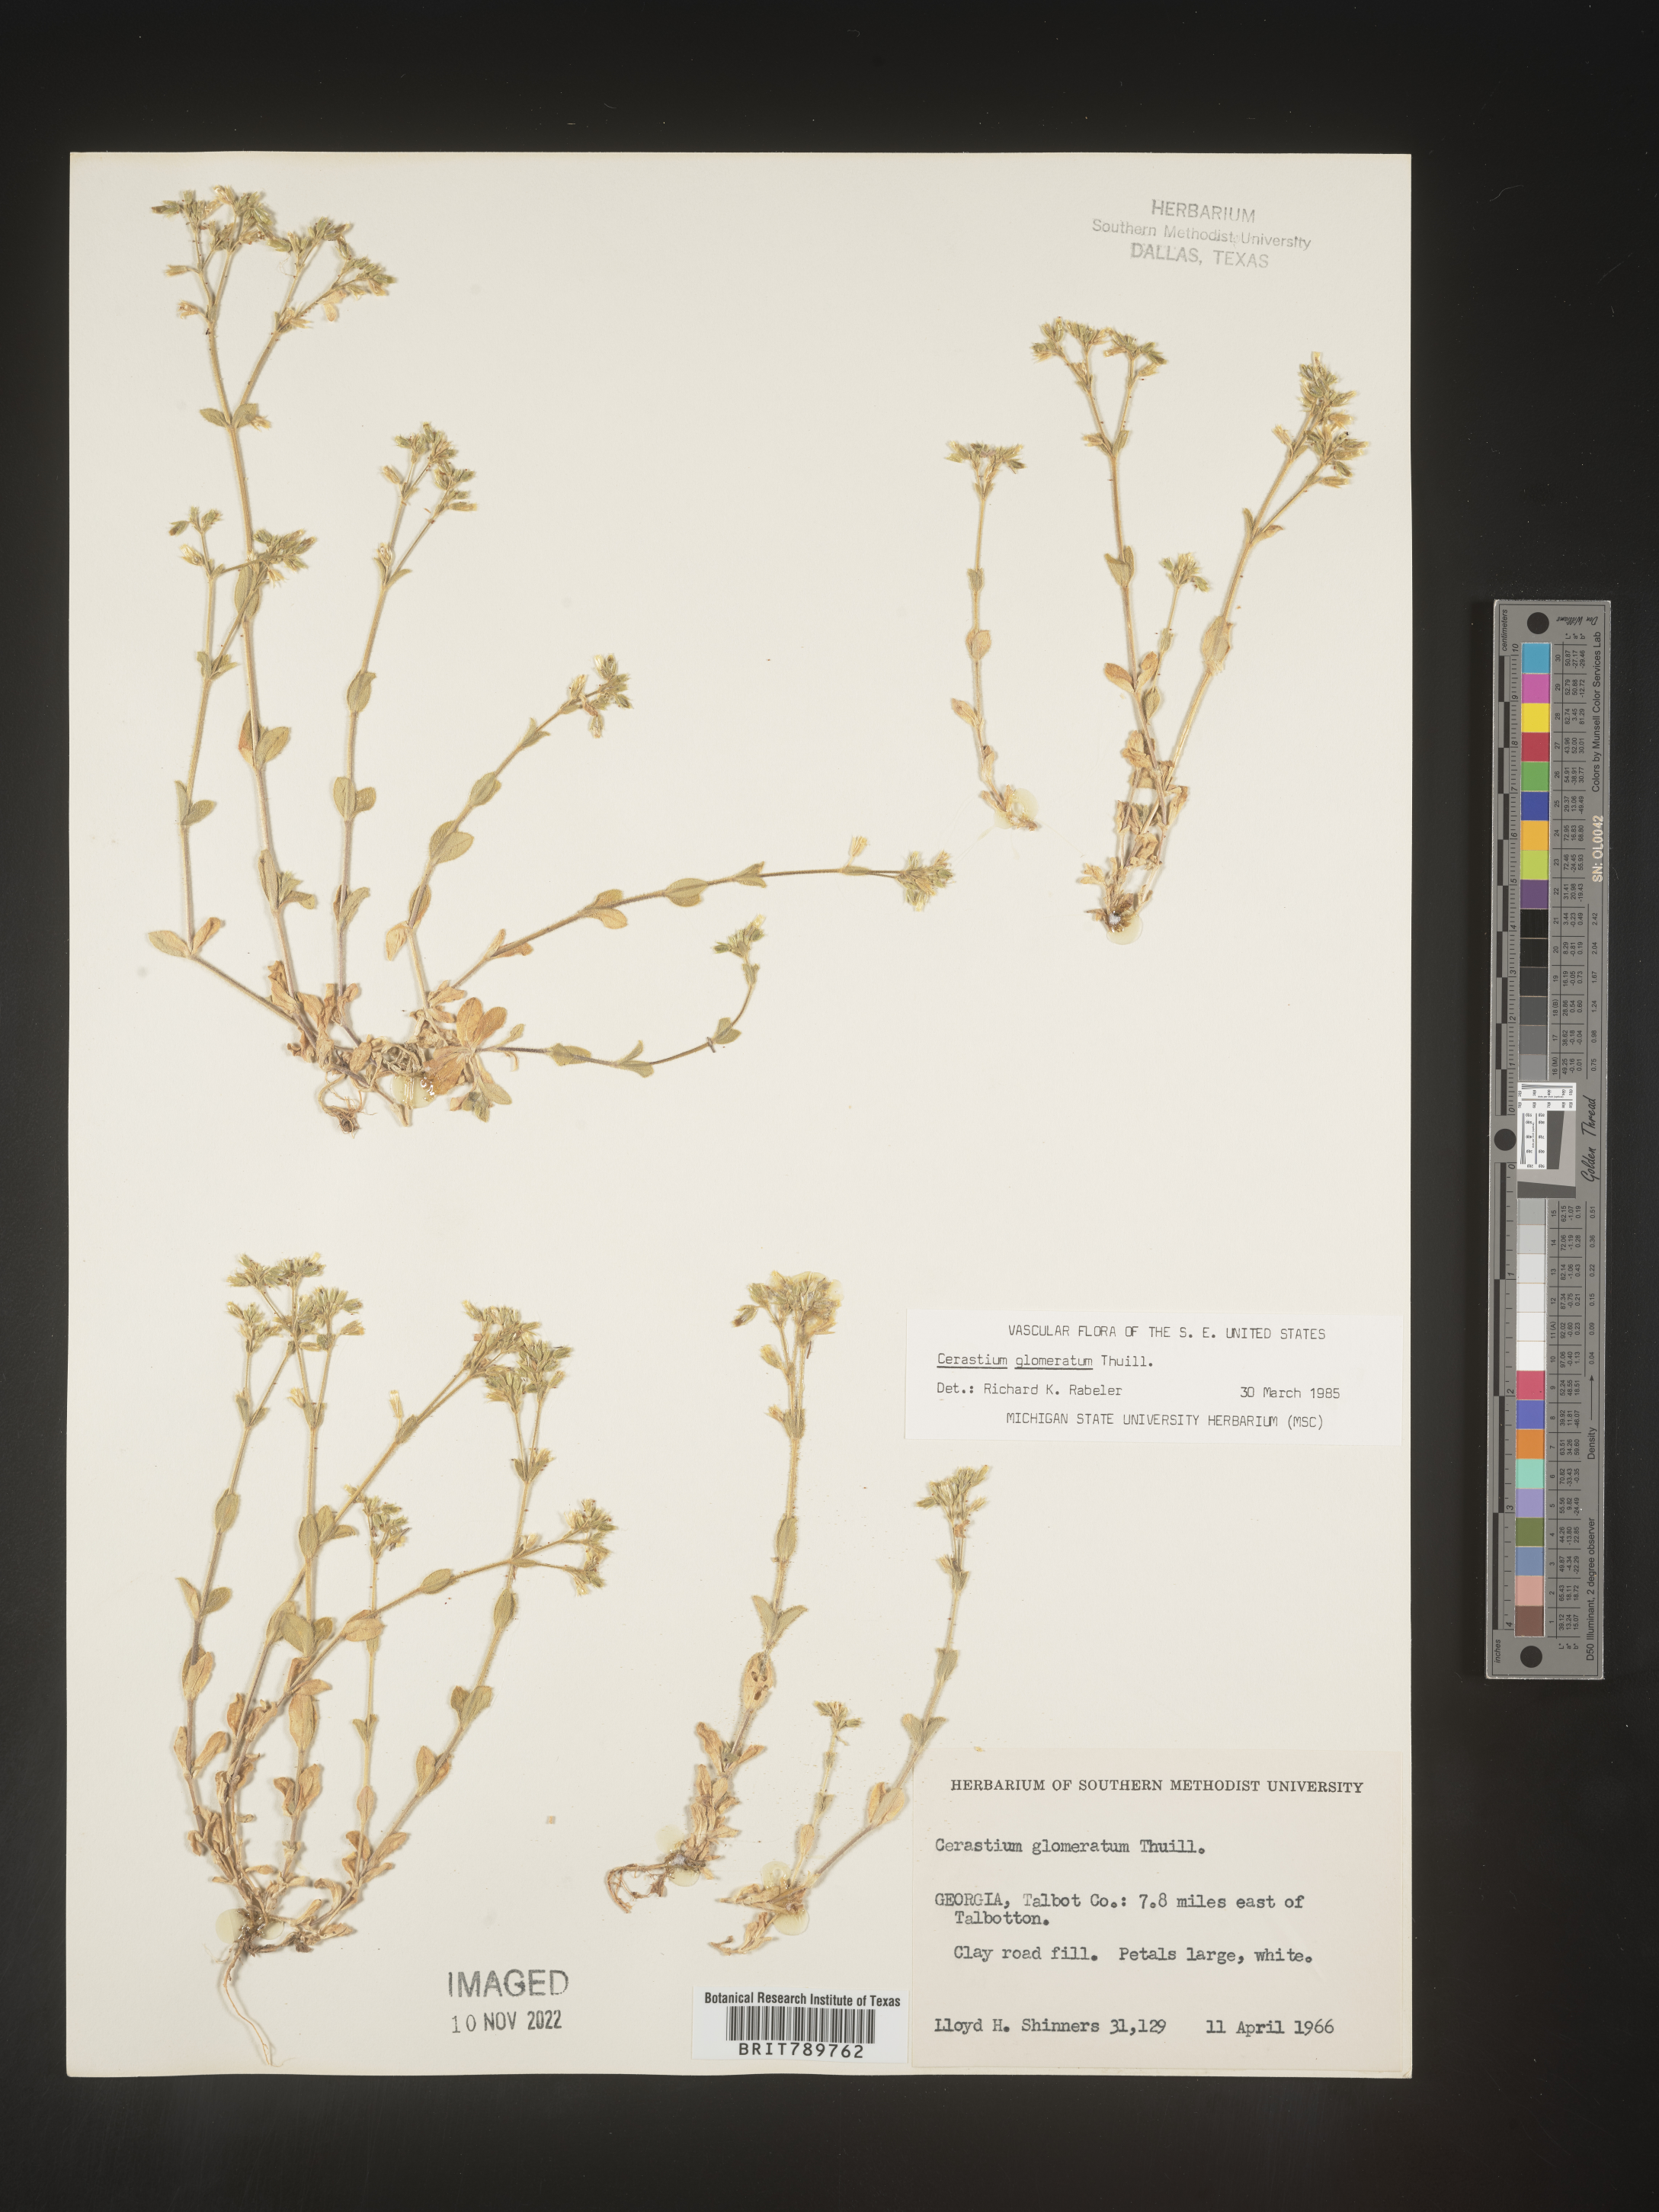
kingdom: Plantae
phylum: Tracheophyta
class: Magnoliopsida
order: Caryophyllales
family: Caryophyllaceae
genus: Cerastium
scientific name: Cerastium glomeratum
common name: Sticky chickweed
